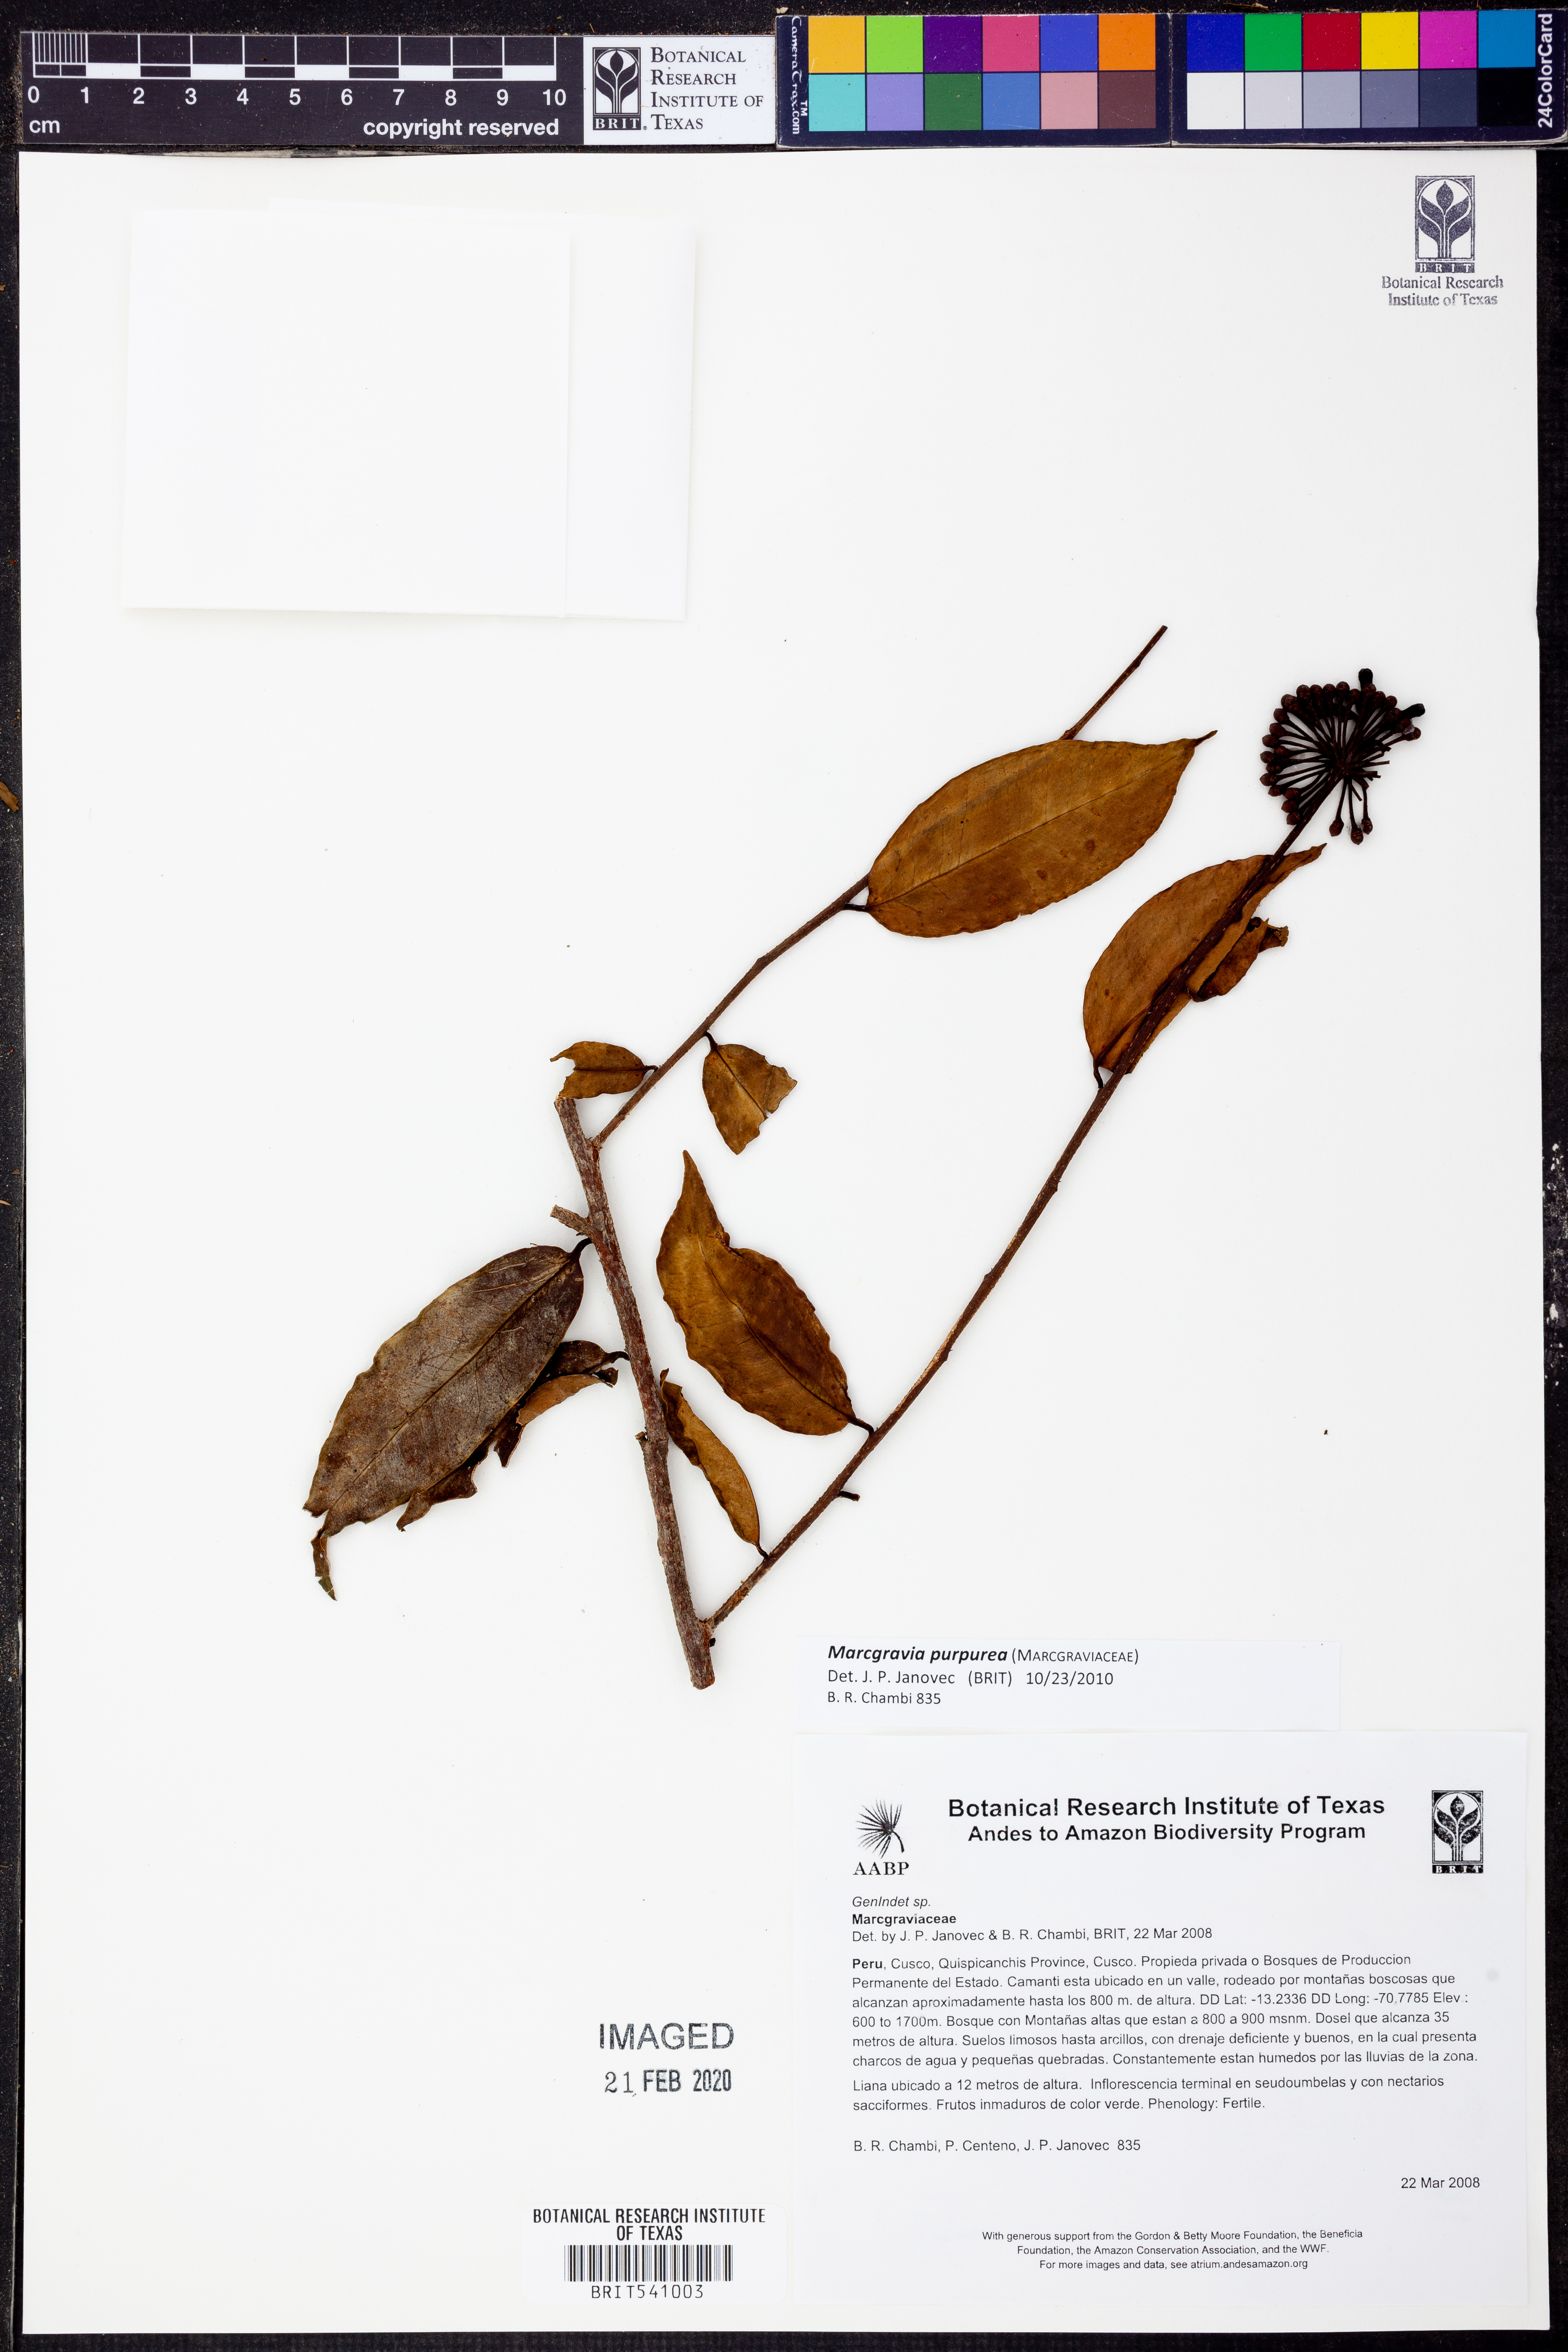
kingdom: Plantae
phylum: Tracheophyta
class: Magnoliopsida
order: Ericales
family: Marcgraviaceae
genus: Marcgravia
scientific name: Marcgravia
